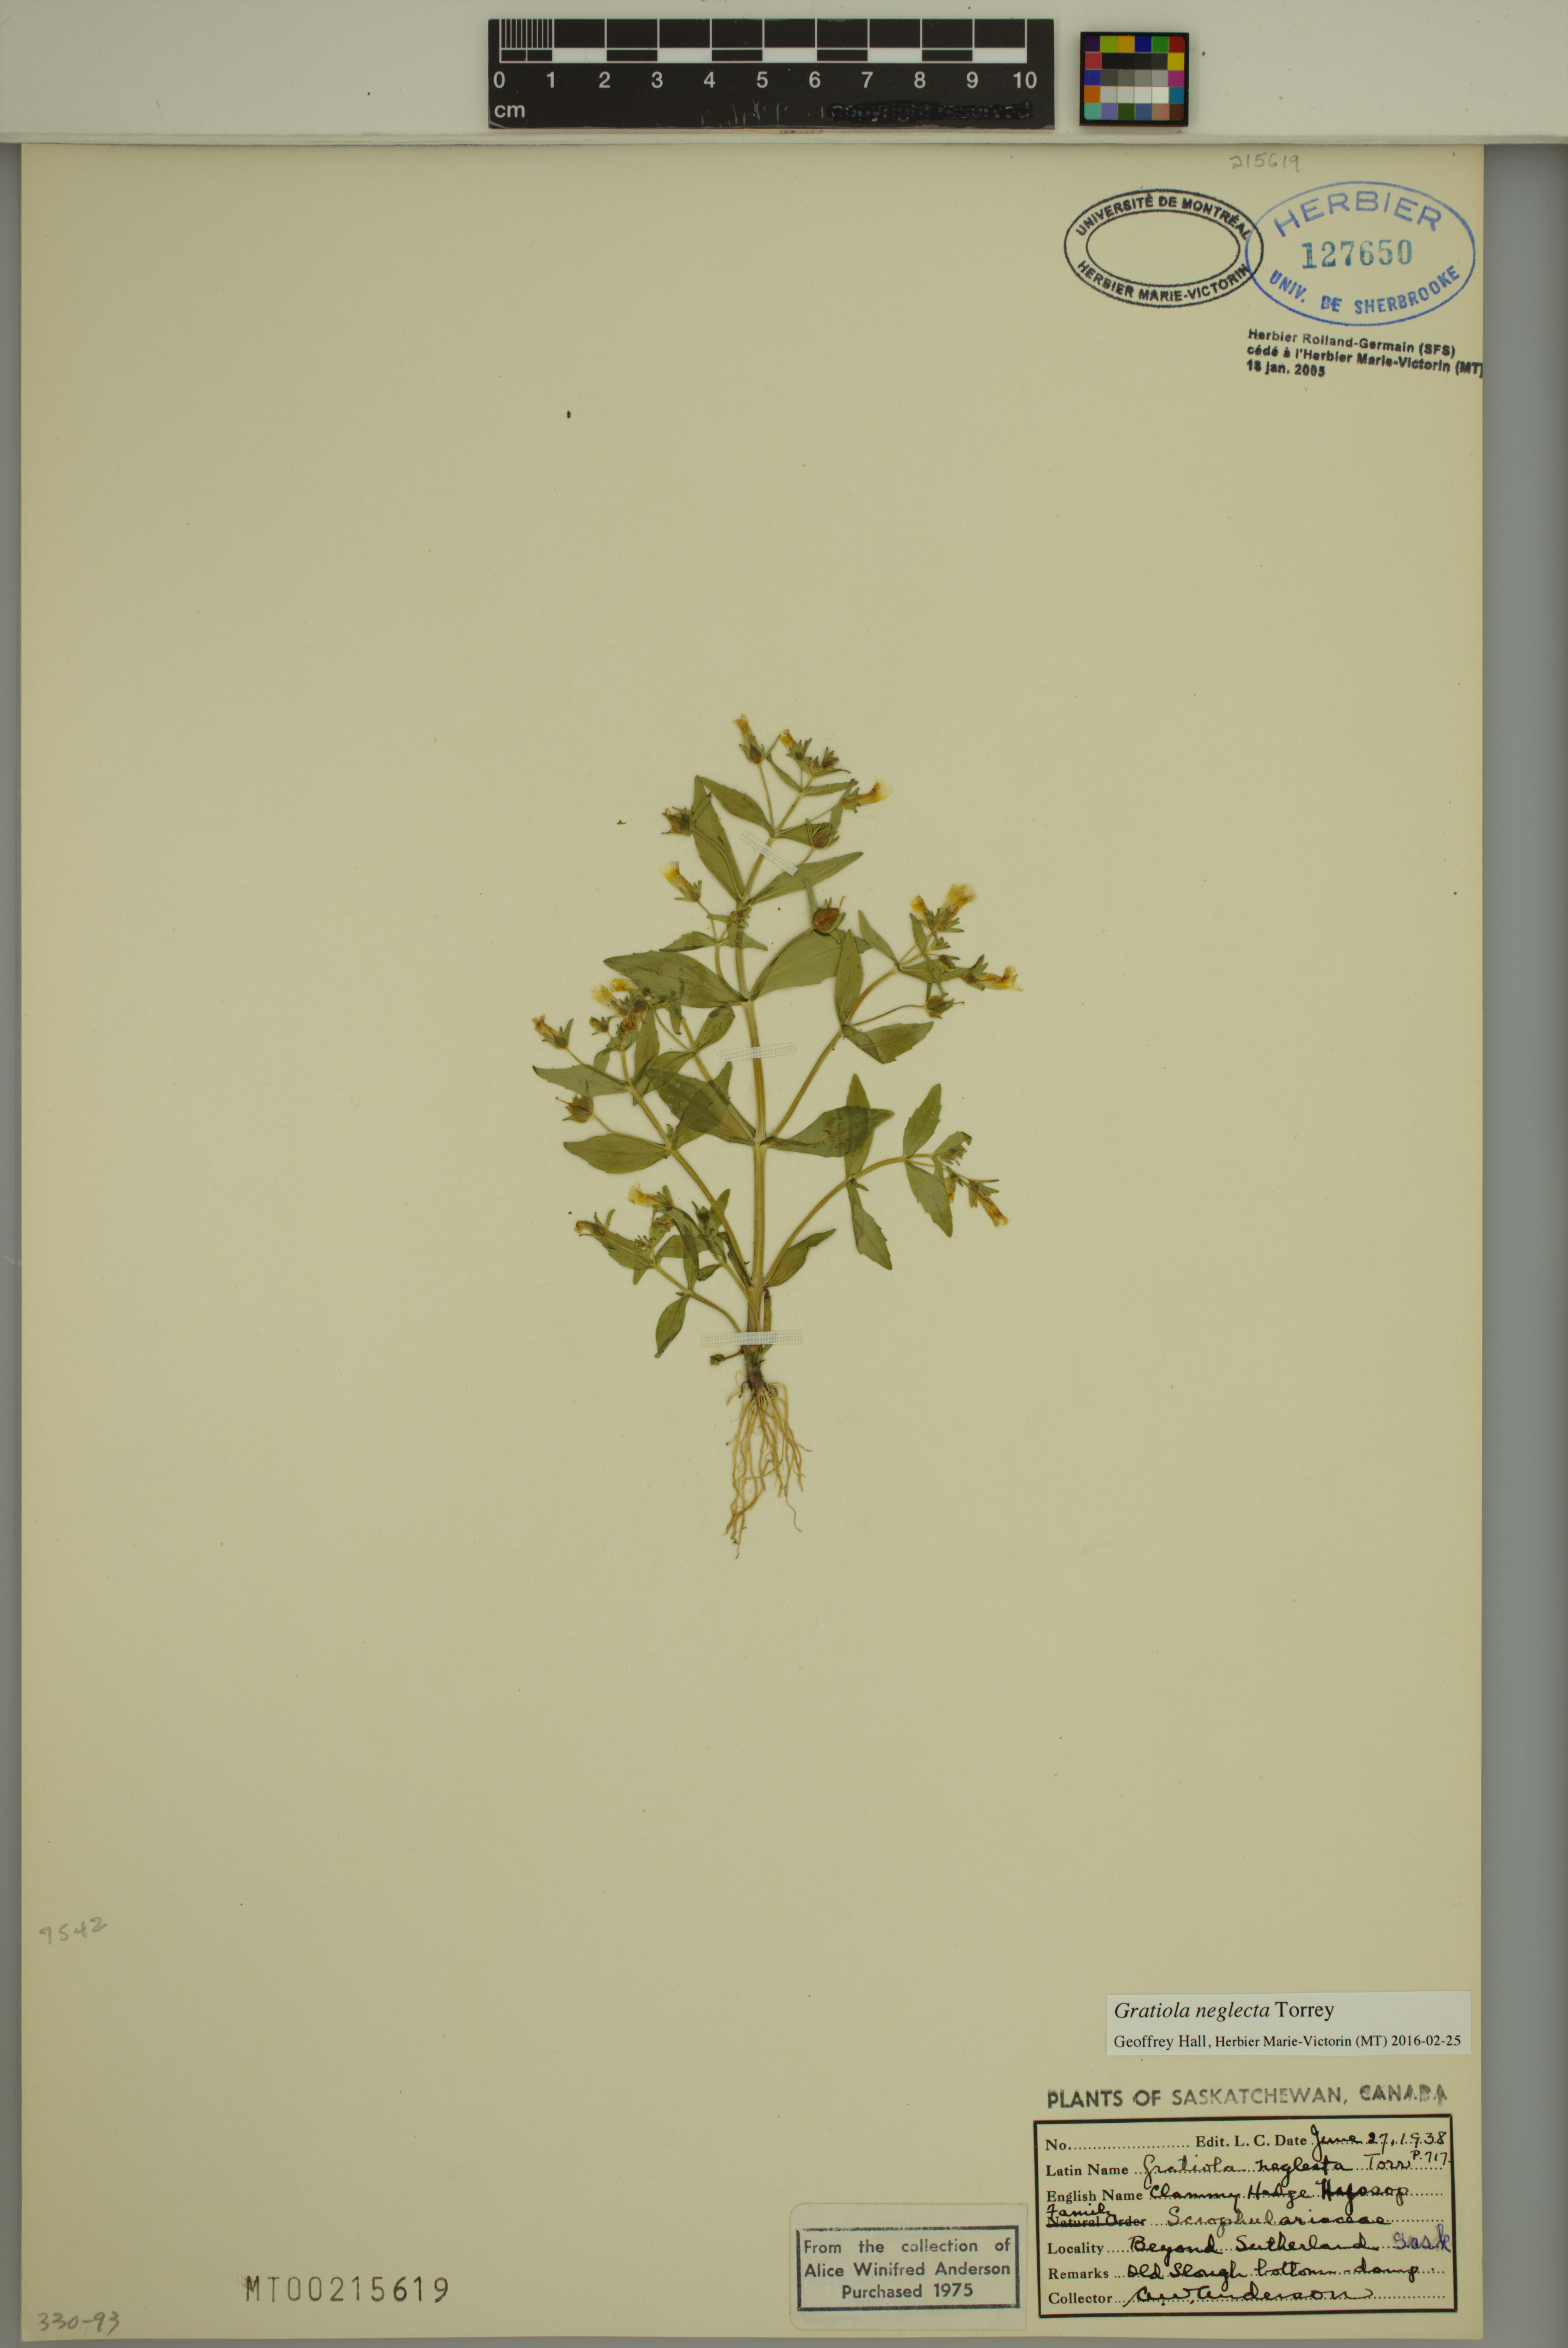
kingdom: Plantae
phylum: Tracheophyta
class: Magnoliopsida
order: Lamiales
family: Plantaginaceae
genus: Gratiola
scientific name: Gratiola neglecta
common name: American hedge-hyssop
